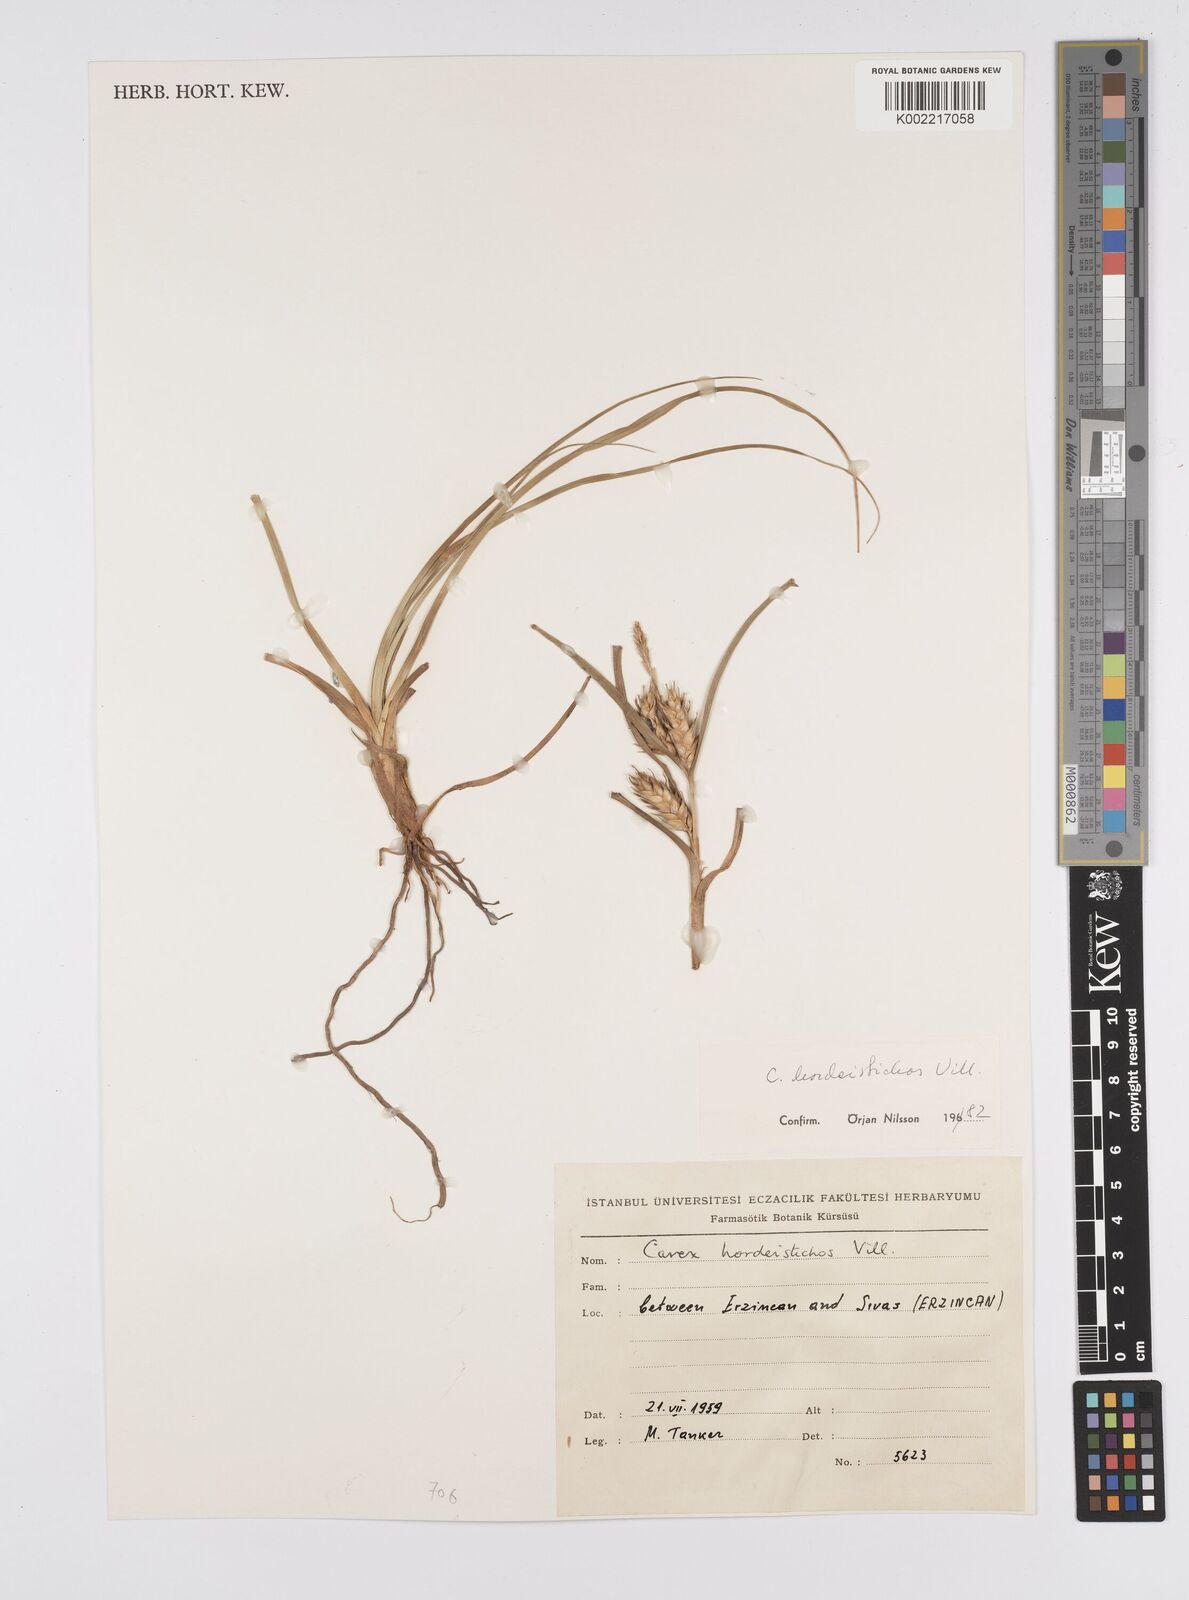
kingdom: Plantae
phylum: Tracheophyta
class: Liliopsida
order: Poales
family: Cyperaceae
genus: Carex
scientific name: Carex hordeistichos
